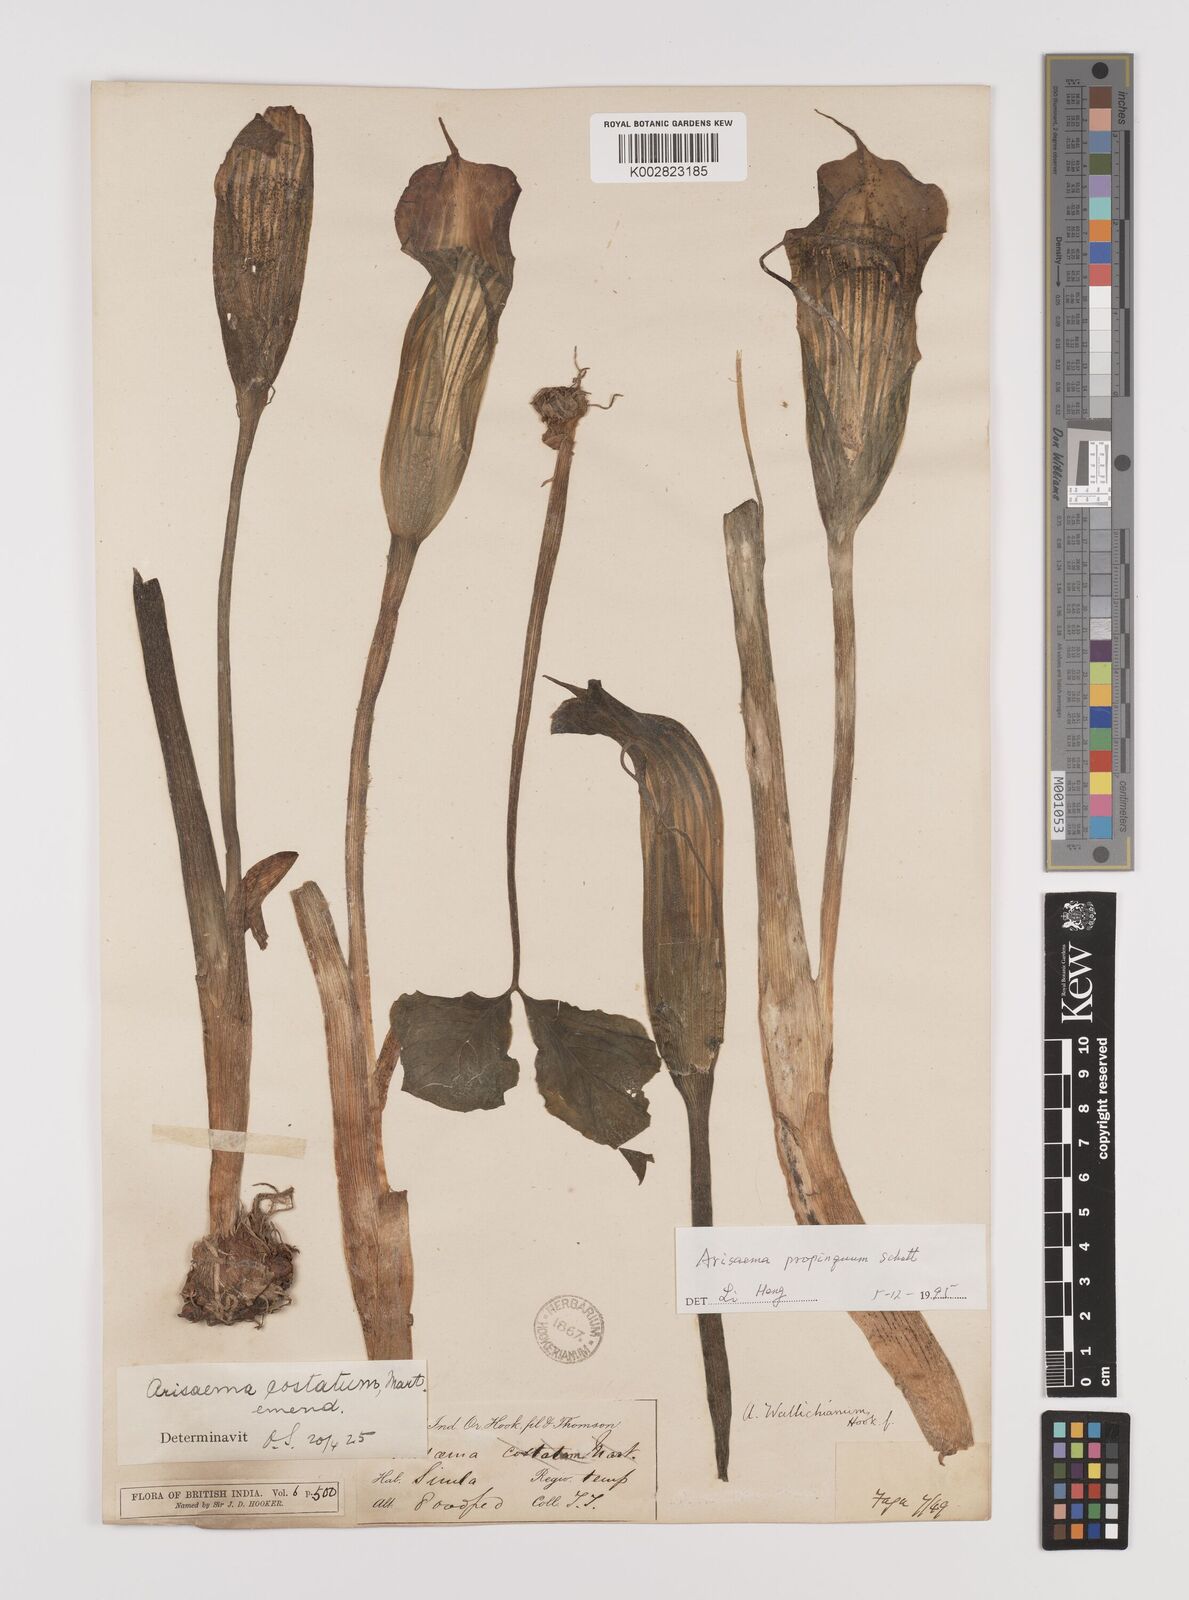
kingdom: Plantae
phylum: Tracheophyta
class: Liliopsida
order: Alismatales
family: Araceae
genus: Arisaema
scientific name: Arisaema propinquum
